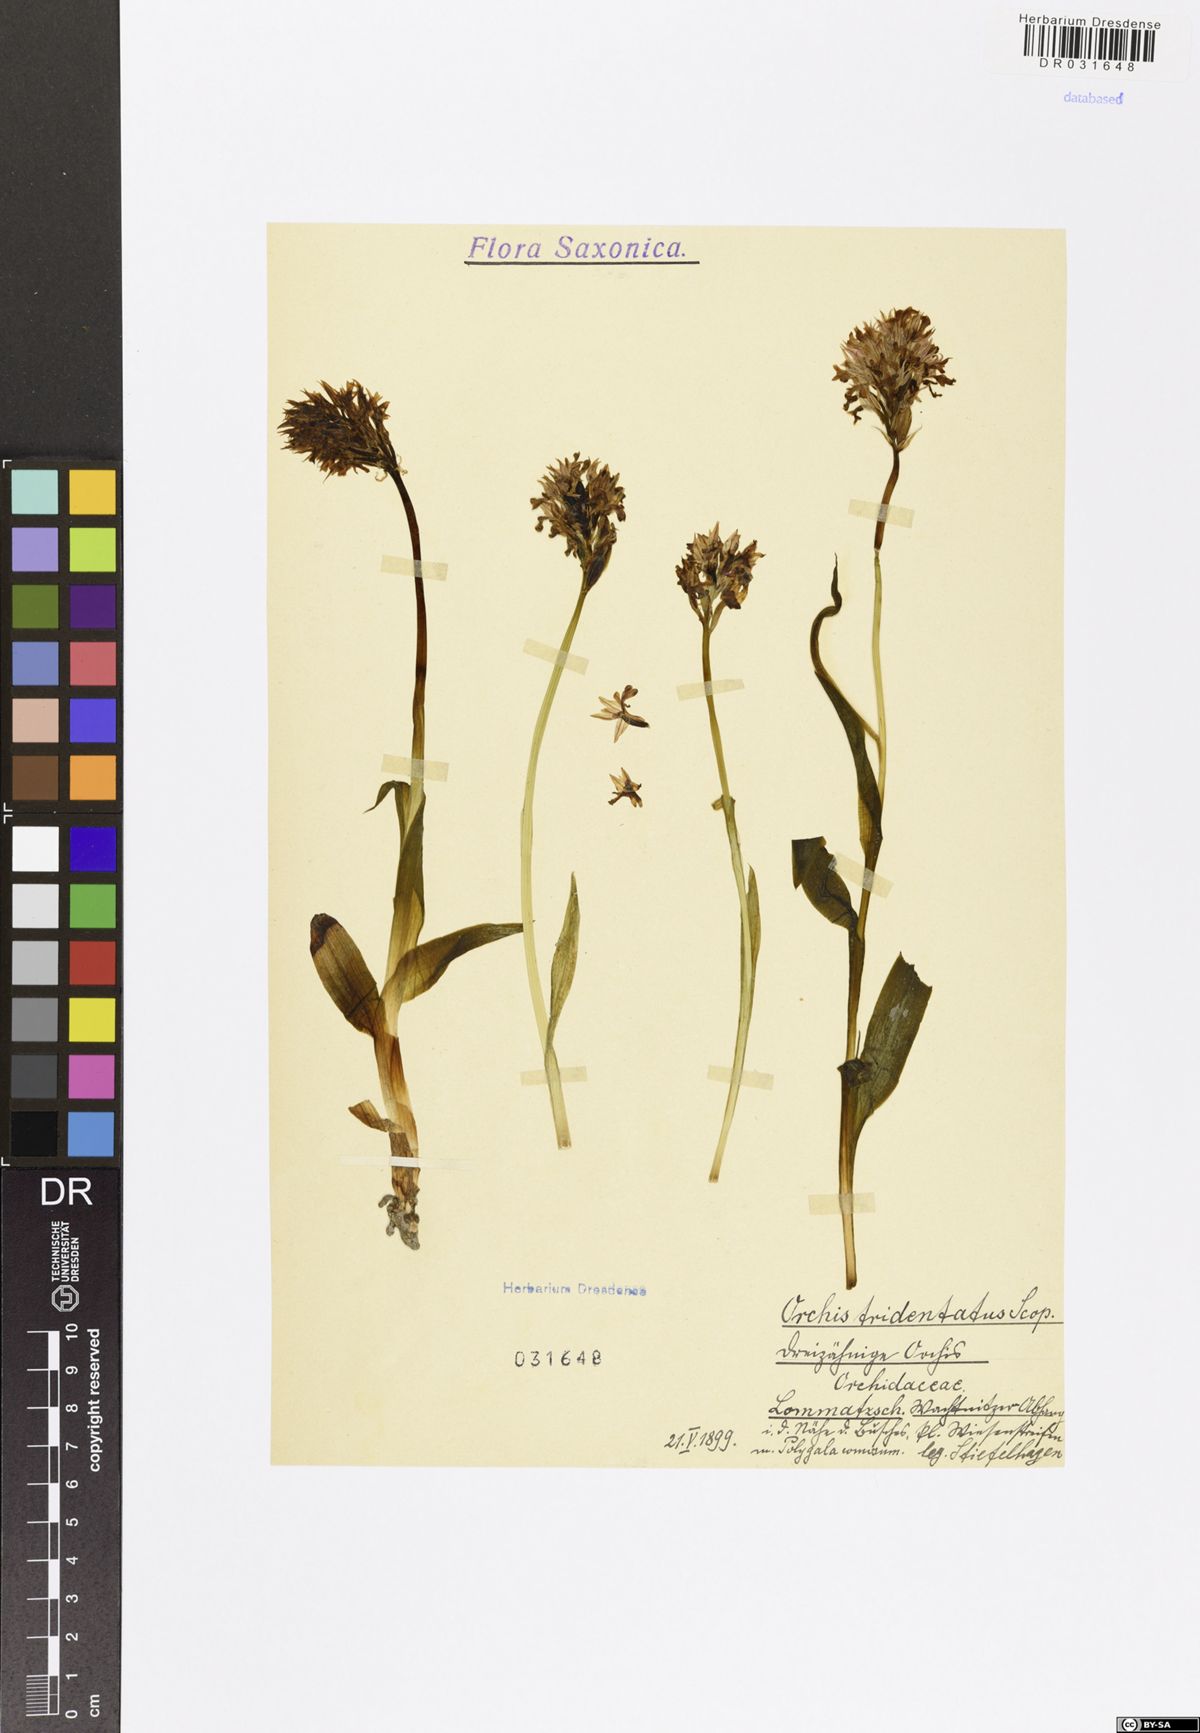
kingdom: Plantae
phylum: Tracheophyta
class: Liliopsida
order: Asparagales
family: Orchidaceae
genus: Neotinea
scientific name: Neotinea tridentata
